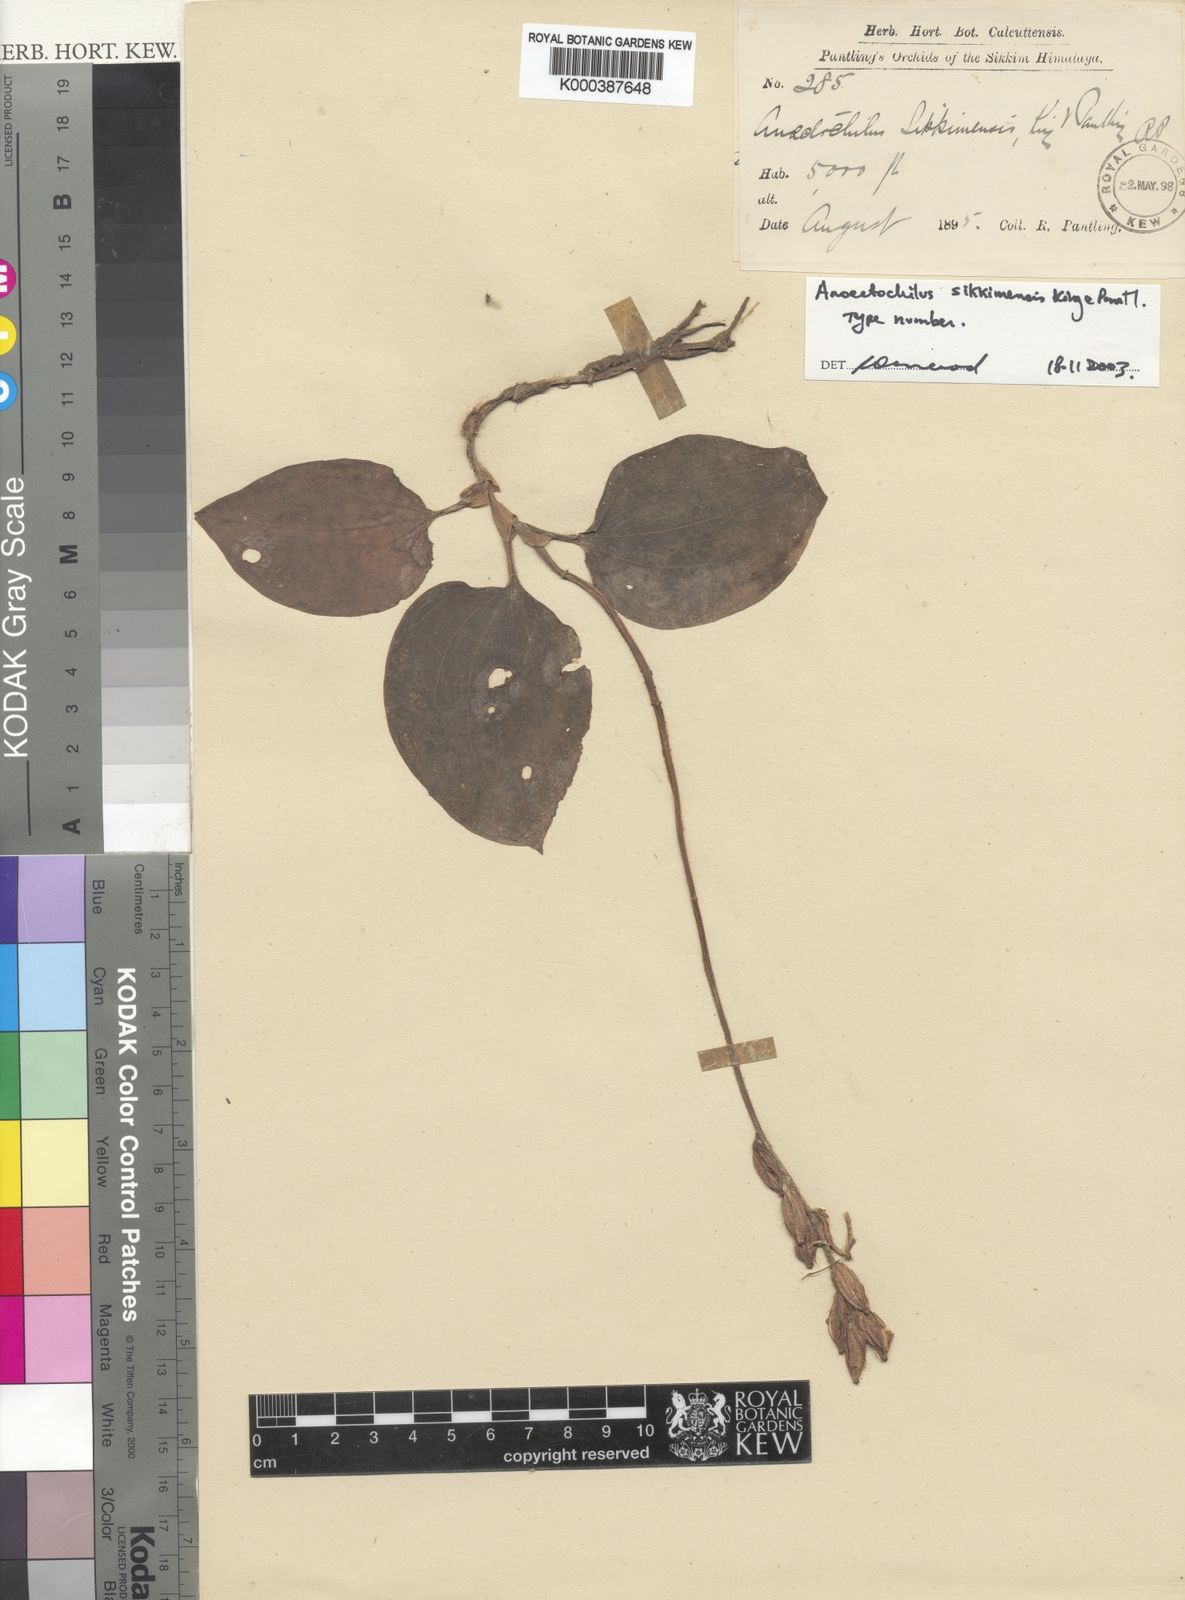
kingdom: Plantae
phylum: Tracheophyta
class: Liliopsida
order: Asparagales
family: Orchidaceae
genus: Anoectochilus
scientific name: Anoectochilus brevilabris
